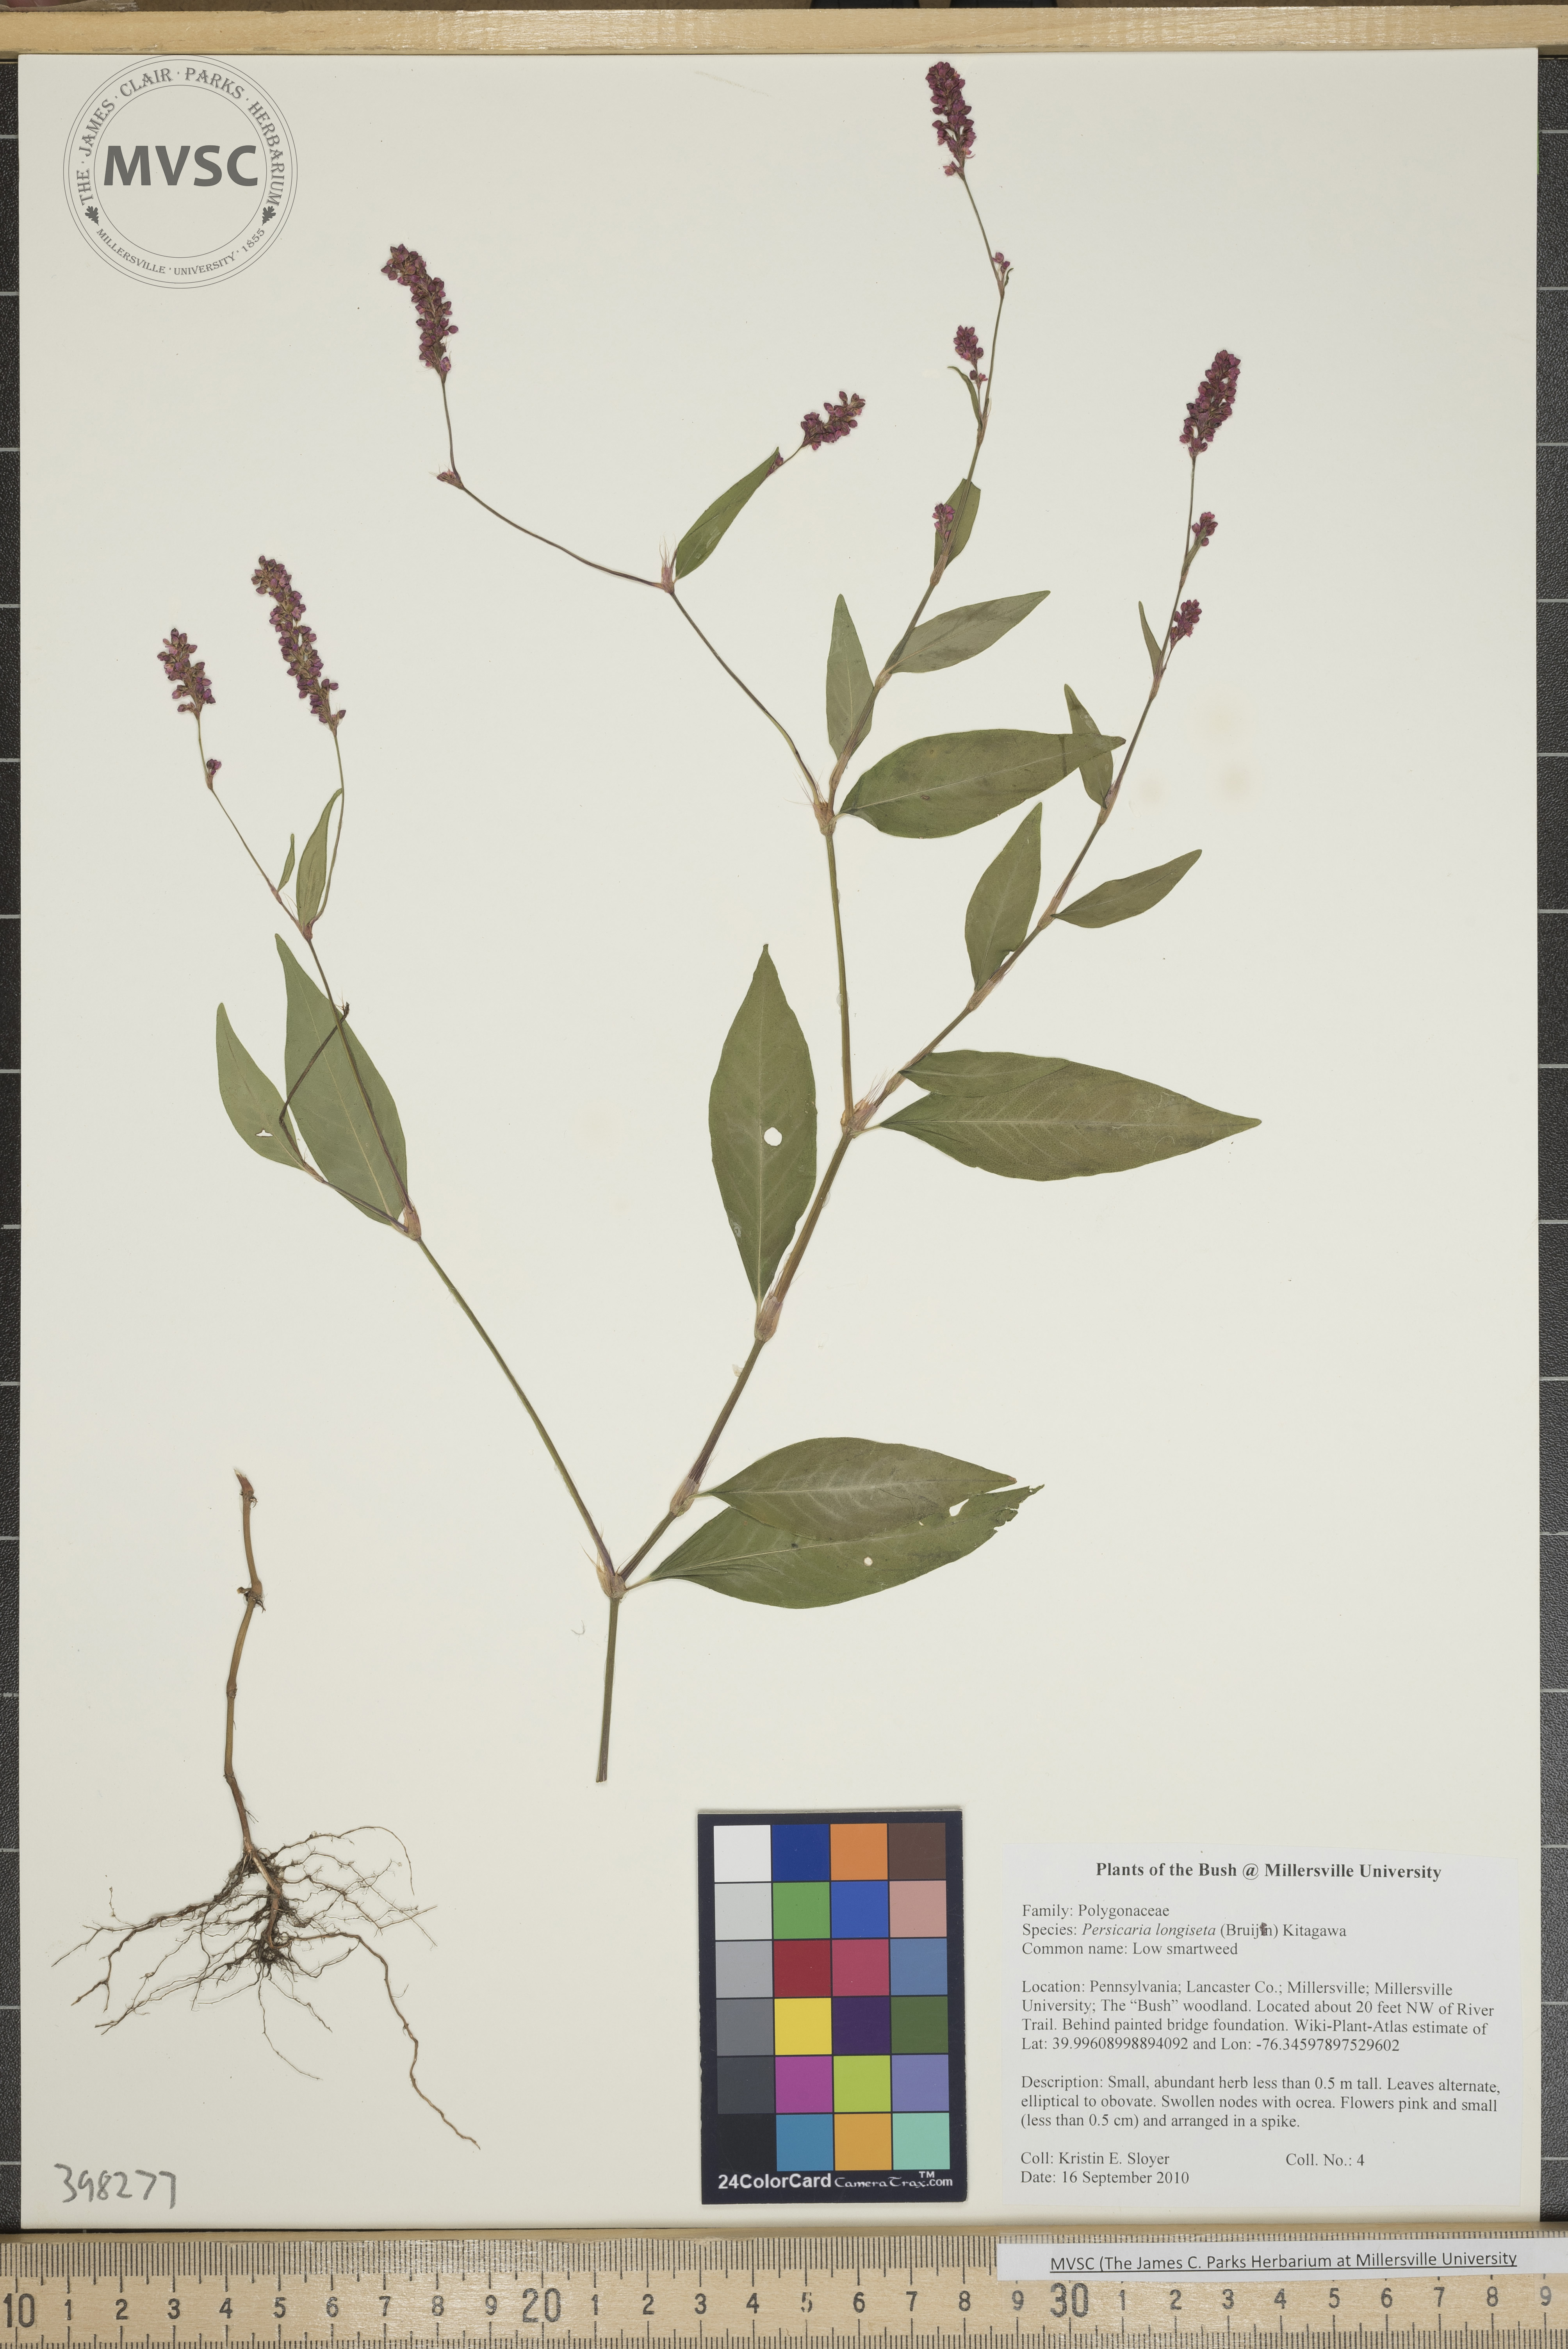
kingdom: Plantae
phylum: Tracheophyta
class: Magnoliopsida
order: Caryophyllales
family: Polygonaceae
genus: Persicaria
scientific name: Persicaria longiseta
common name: Low smartweed
